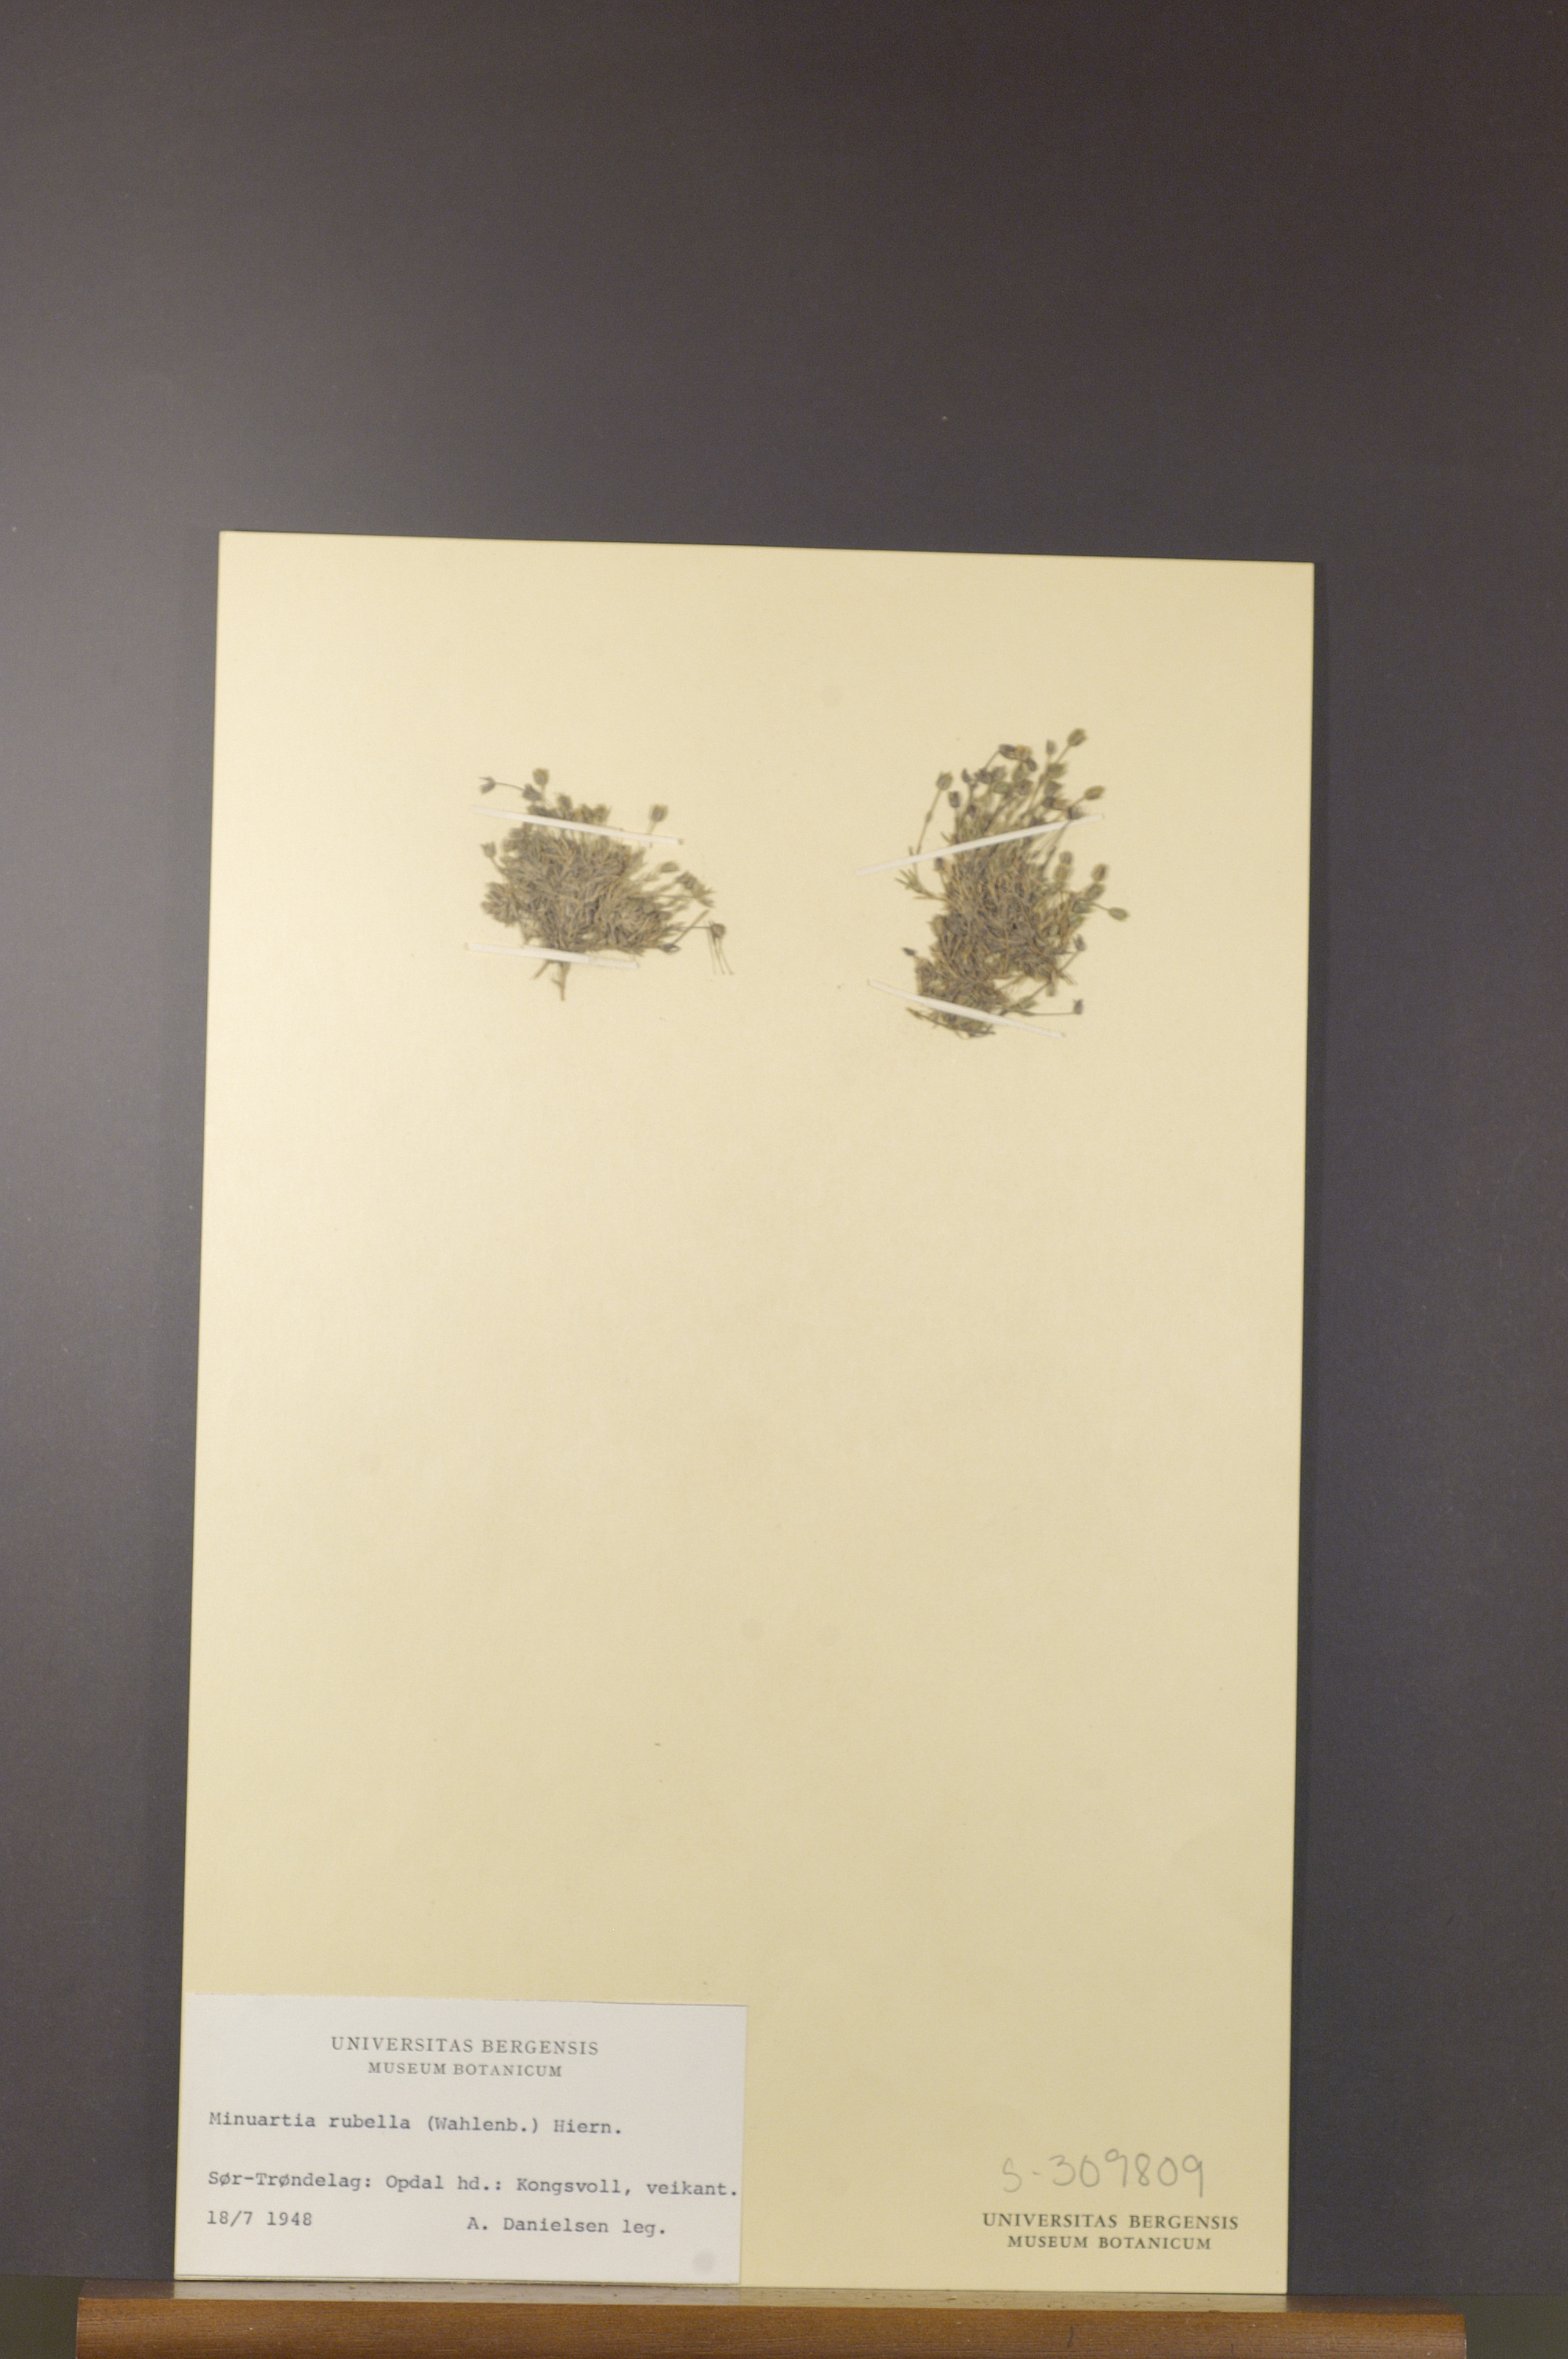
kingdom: Plantae
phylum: Tracheophyta
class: Magnoliopsida
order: Caryophyllales
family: Caryophyllaceae
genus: Sabulina
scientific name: Sabulina rubella
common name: Beautiful sandwort
